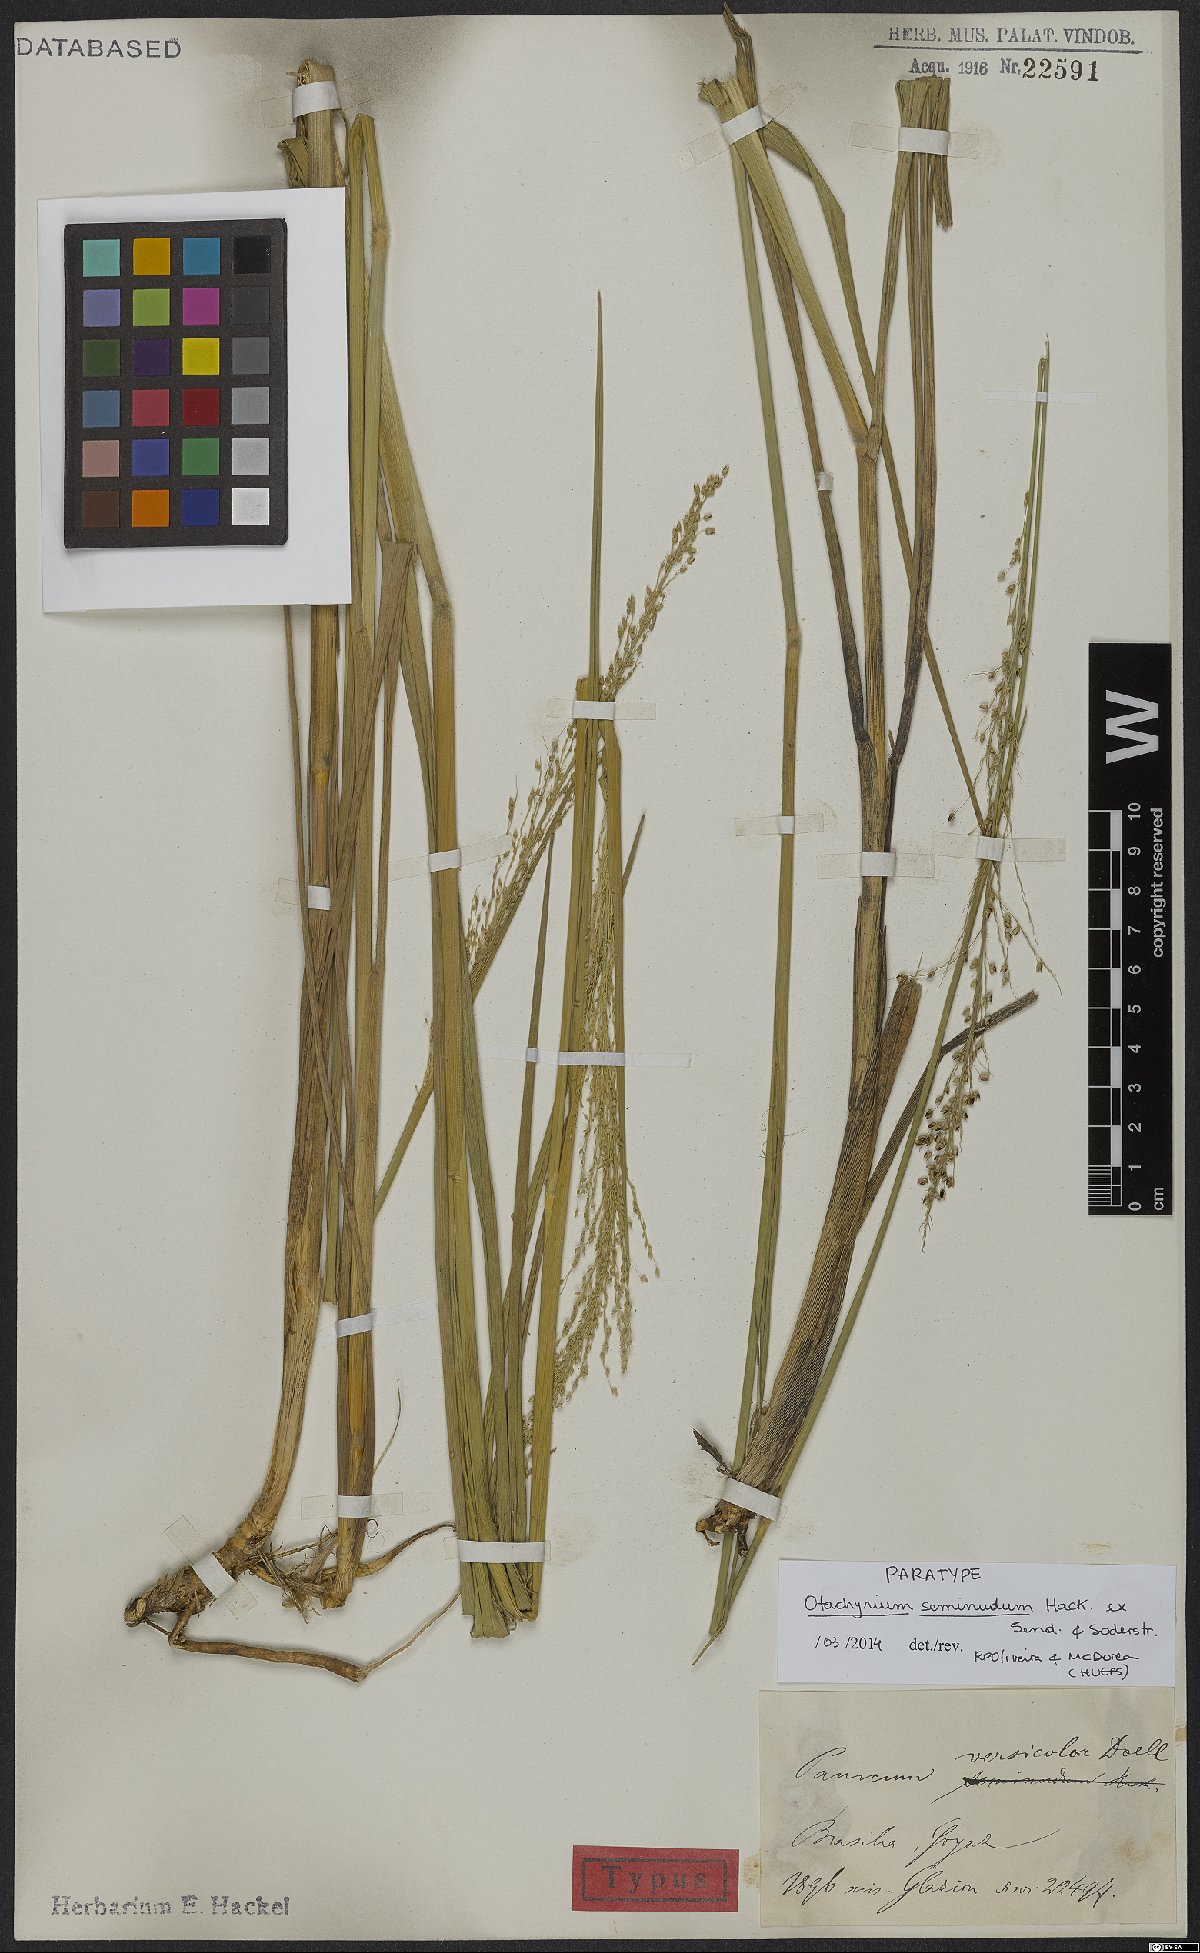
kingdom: Plantae
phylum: Tracheophyta
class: Liliopsida
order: Poales
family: Poaceae
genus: Otachyrium
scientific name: Otachyrium seminudum
